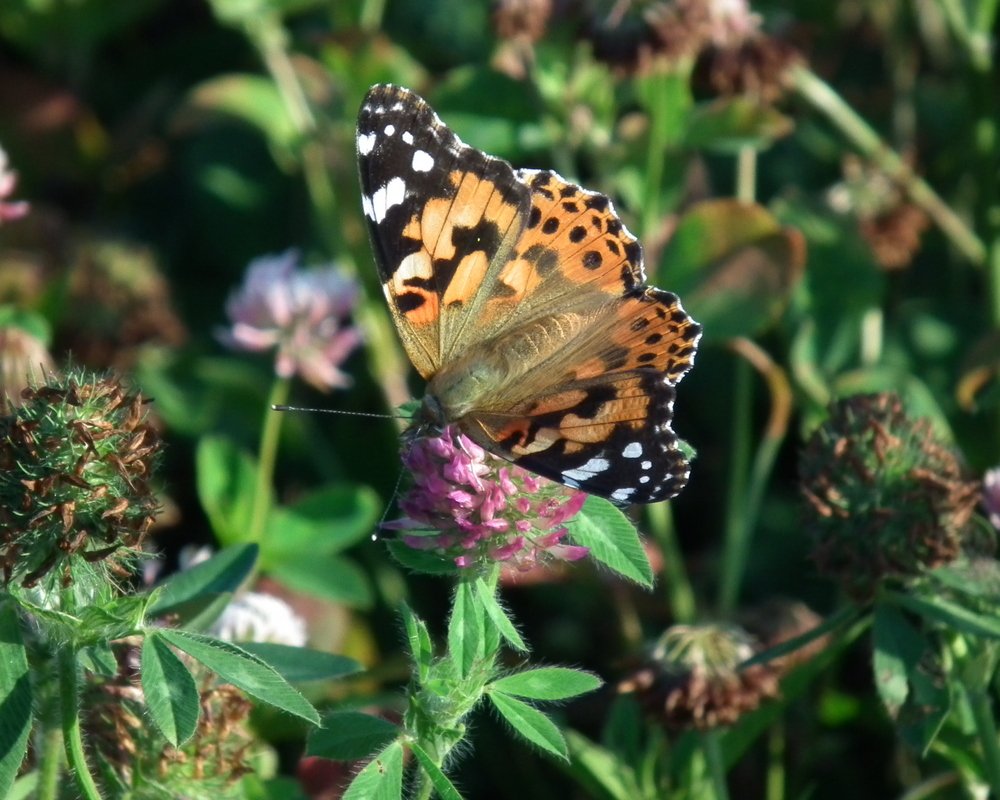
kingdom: Animalia
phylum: Arthropoda
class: Insecta
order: Lepidoptera
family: Nymphalidae
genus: Vanessa
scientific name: Vanessa cardui
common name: Painted Lady
